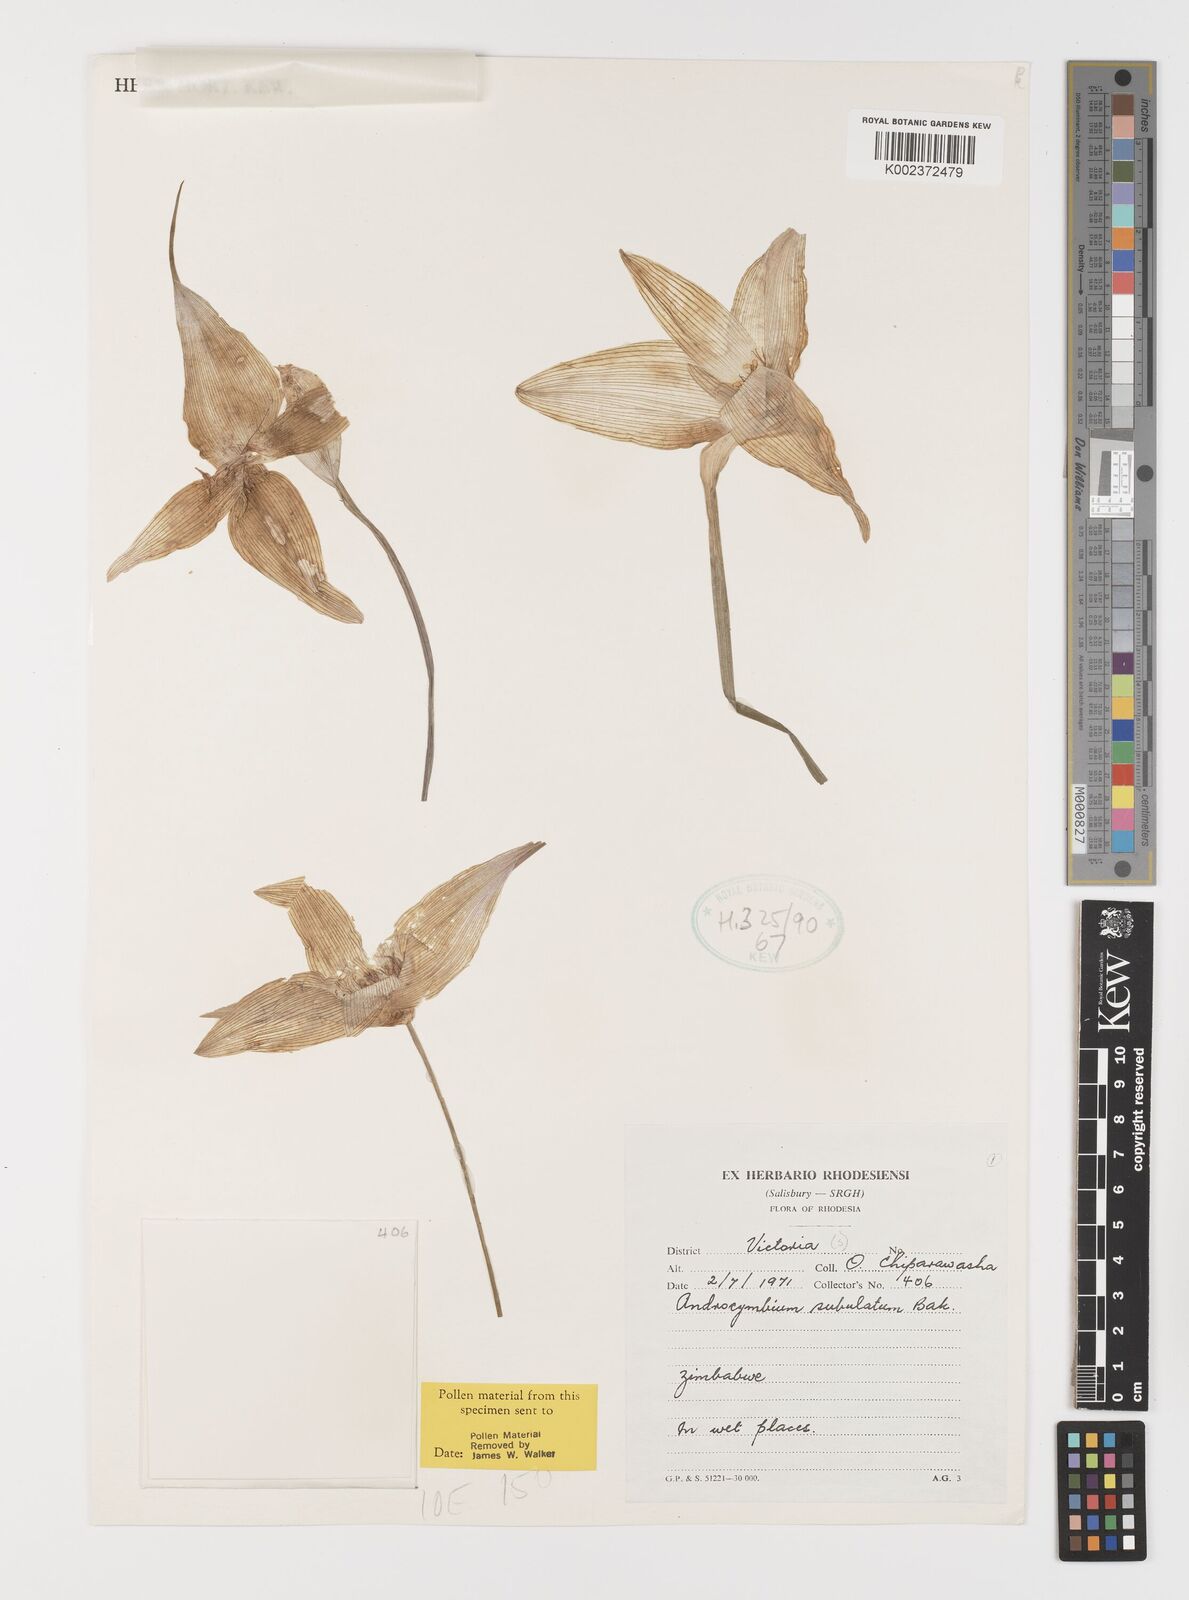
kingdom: Plantae
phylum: Tracheophyta
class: Liliopsida
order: Liliales
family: Colchicaceae
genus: Colchicum
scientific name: Colchicum melanthioides
